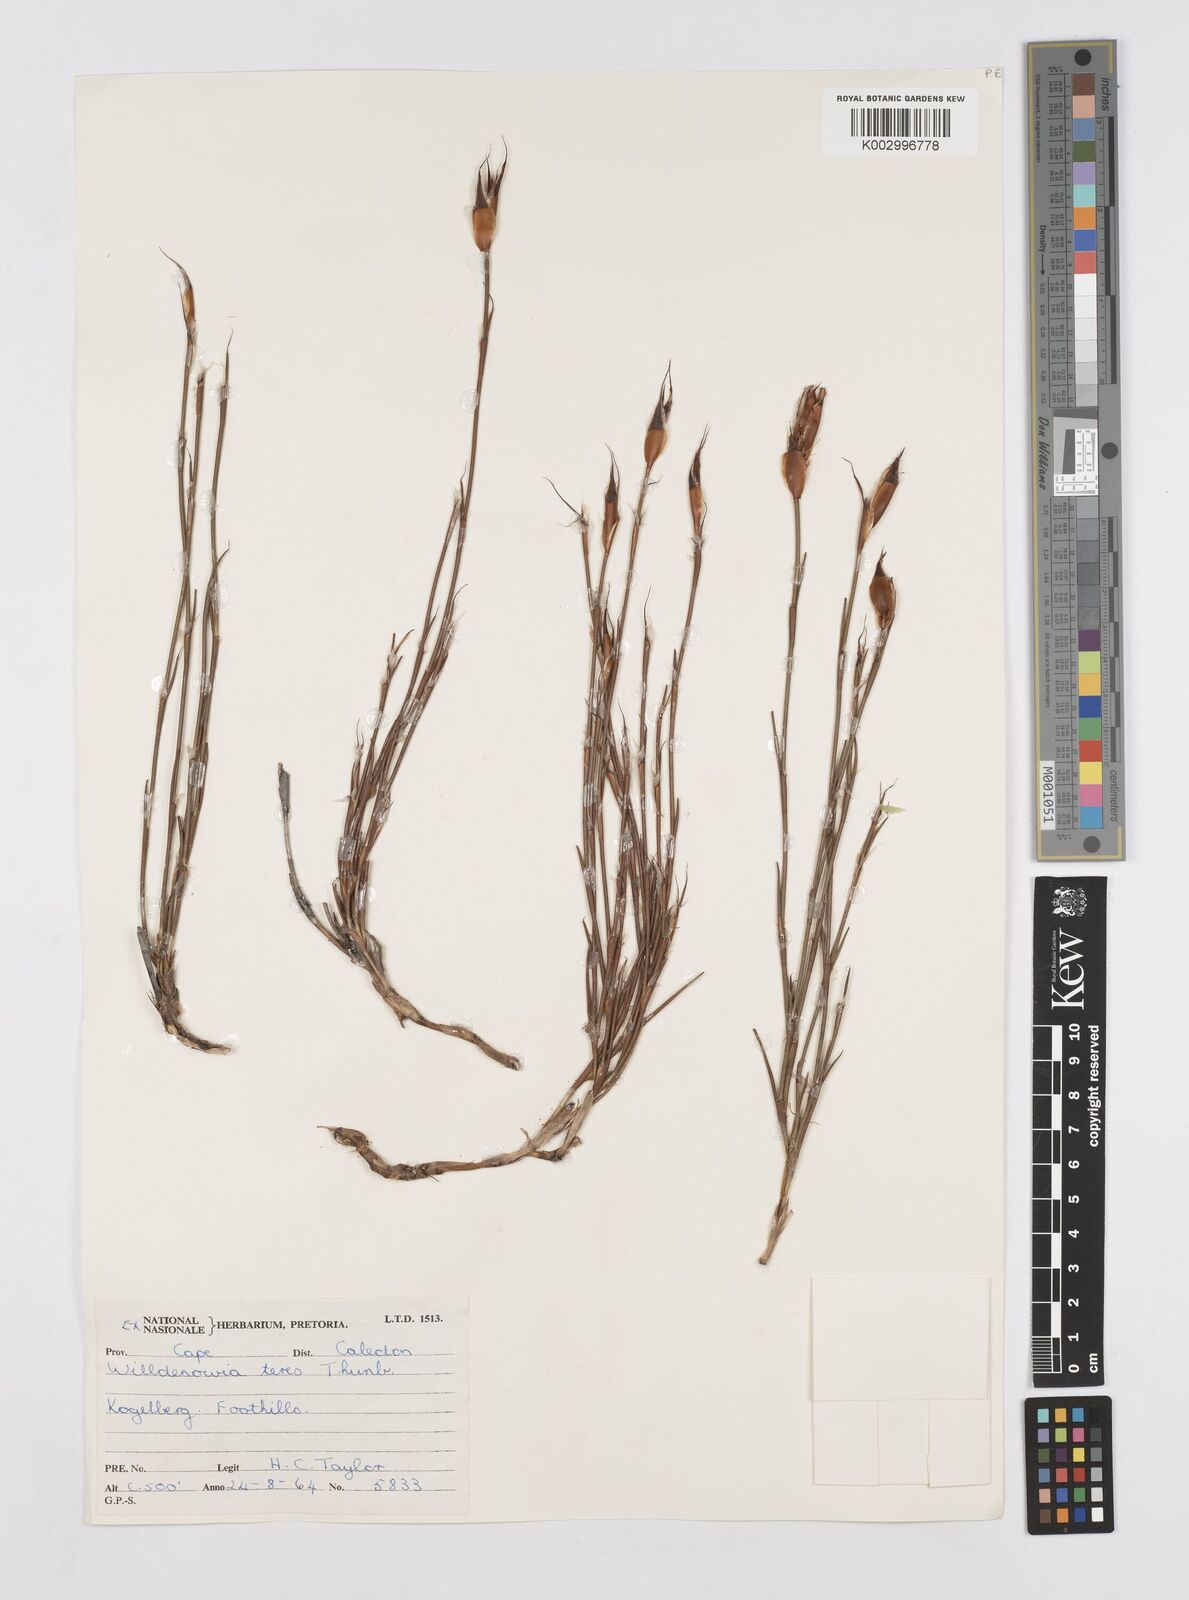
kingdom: Plantae
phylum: Tracheophyta
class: Liliopsida
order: Poales
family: Restionaceae
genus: Willdenowia
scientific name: Willdenowia teres
